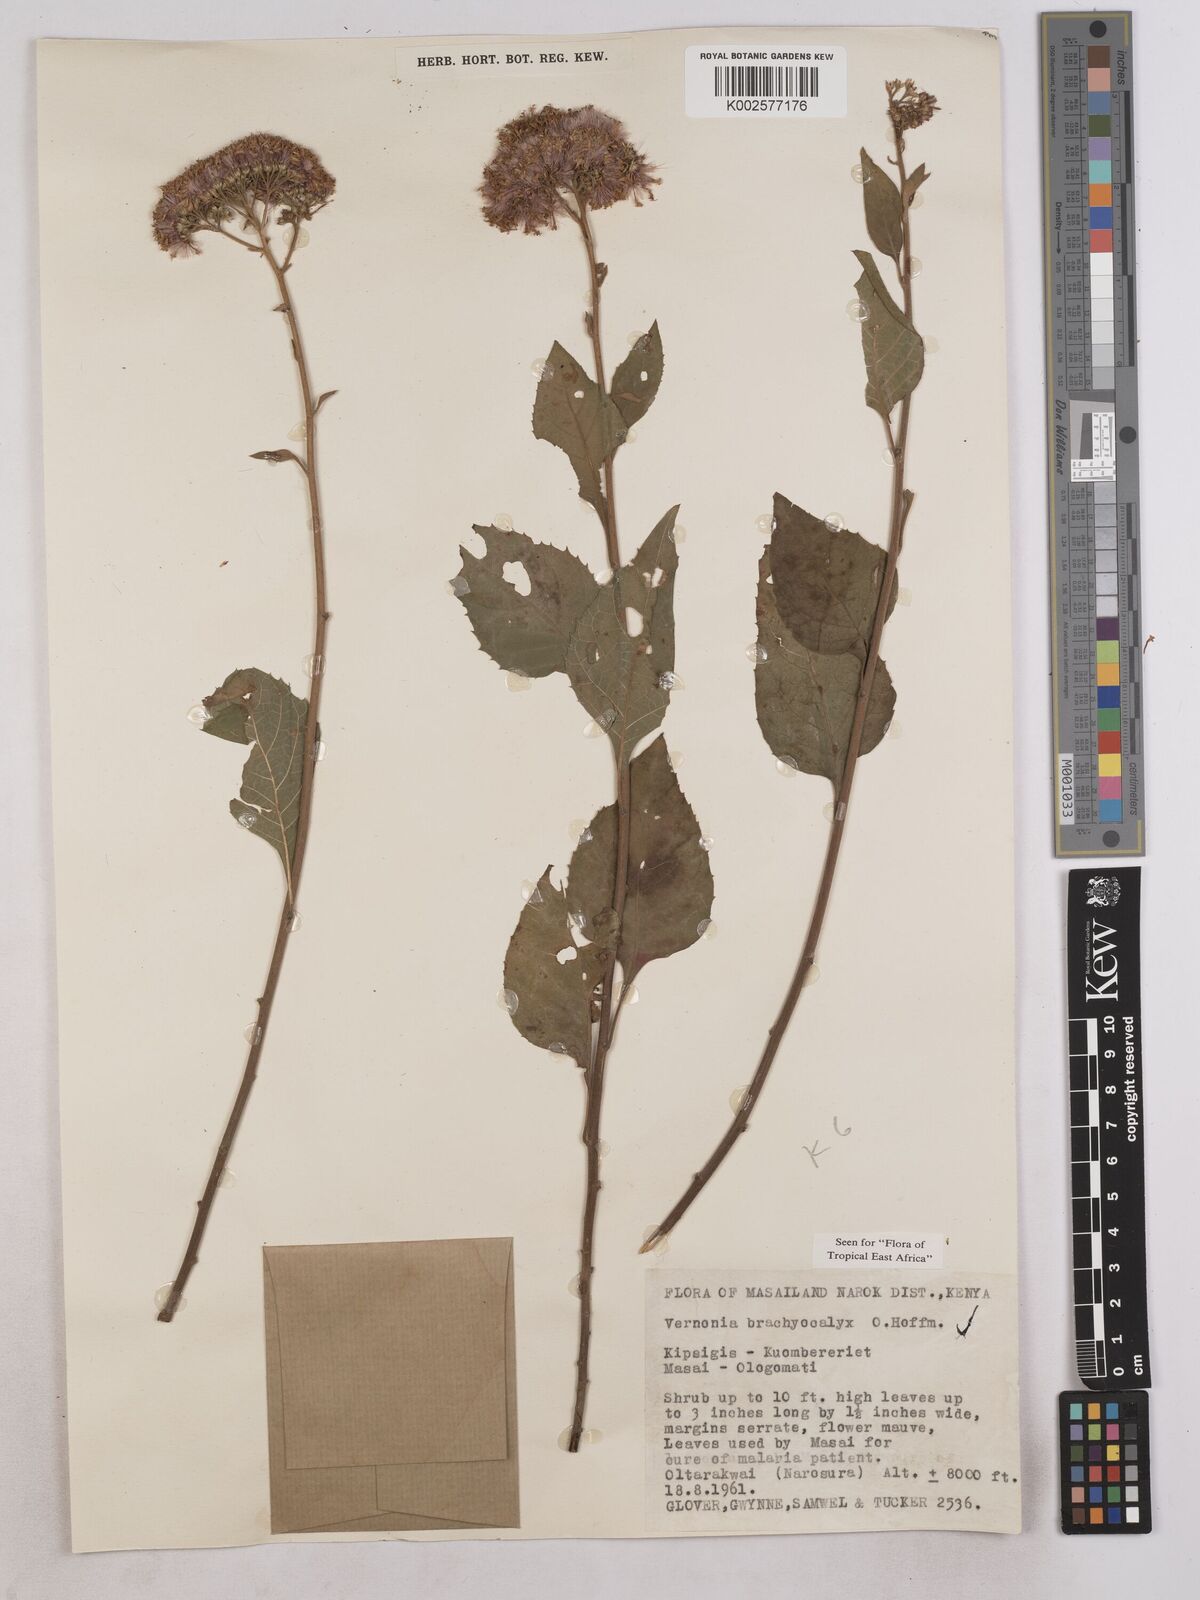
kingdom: Plantae
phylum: Tracheophyta
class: Magnoliopsida
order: Asterales
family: Asteraceae
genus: Hoffmannanthus
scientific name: Hoffmannanthus abbotianus
